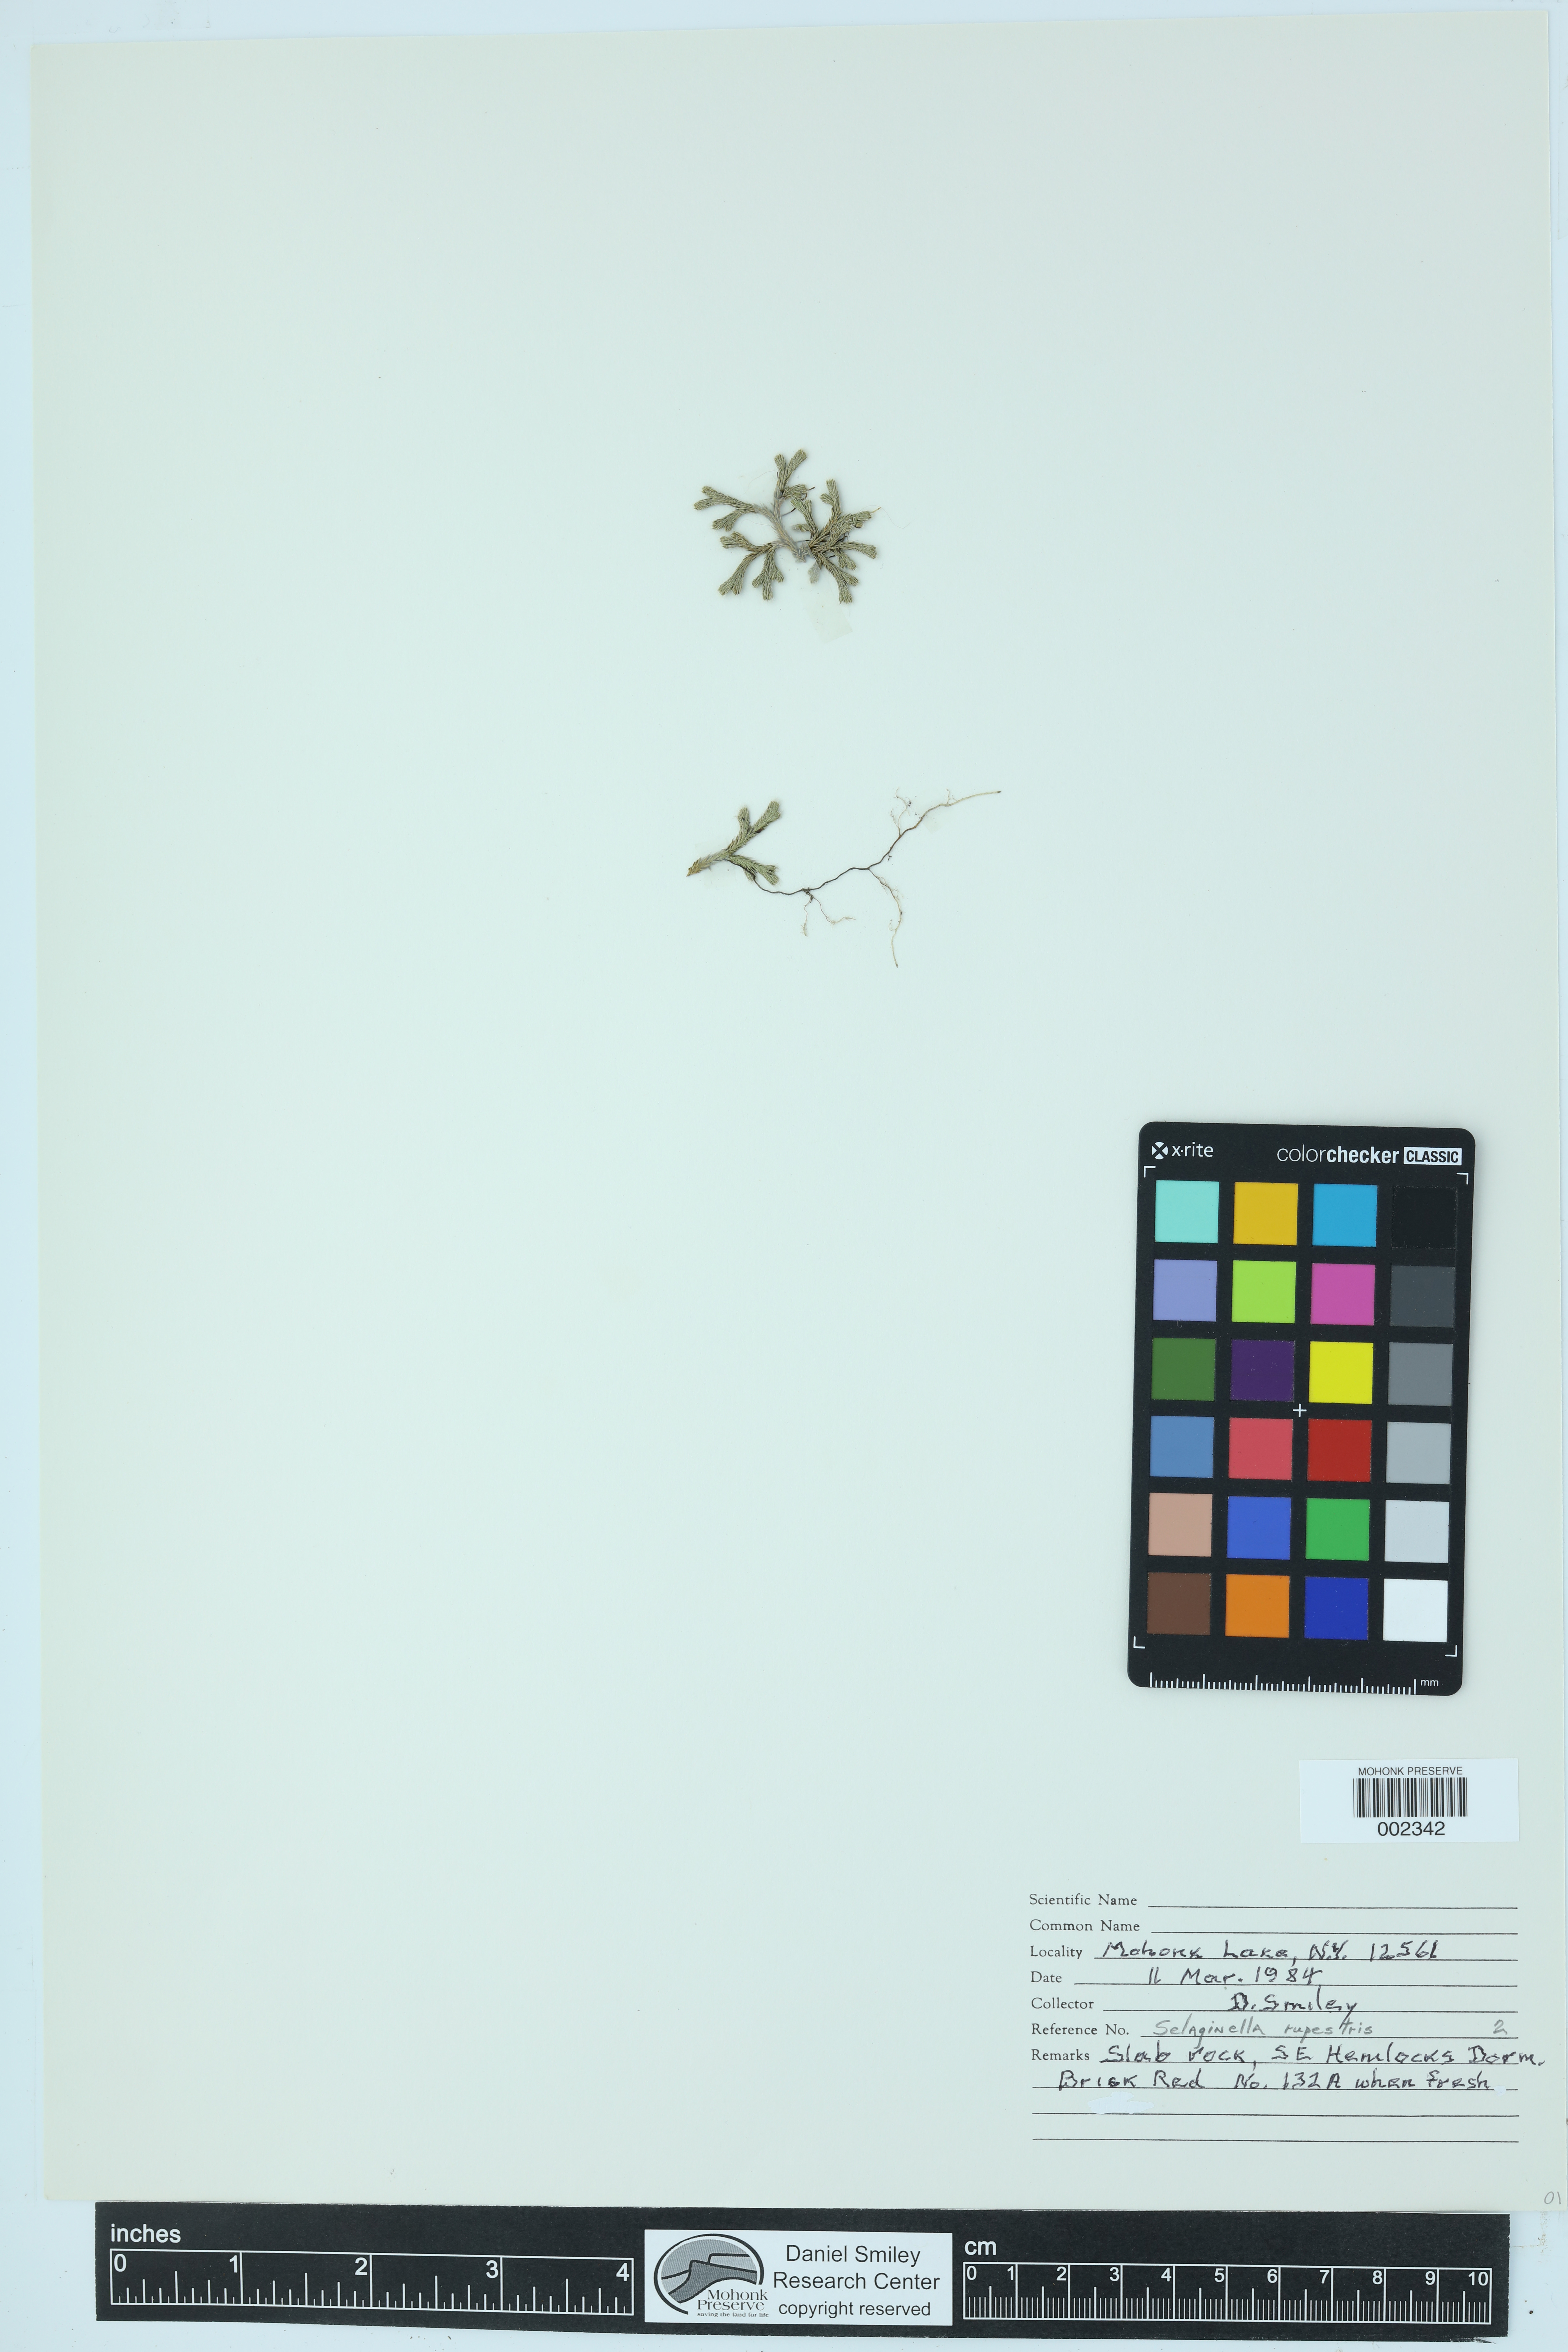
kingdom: Plantae
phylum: Tracheophyta
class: Lycopodiopsida
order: Selaginellales
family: Selaginellaceae
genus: Selaginella
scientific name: Selaginella rupestris
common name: Dwarf spikemoss
